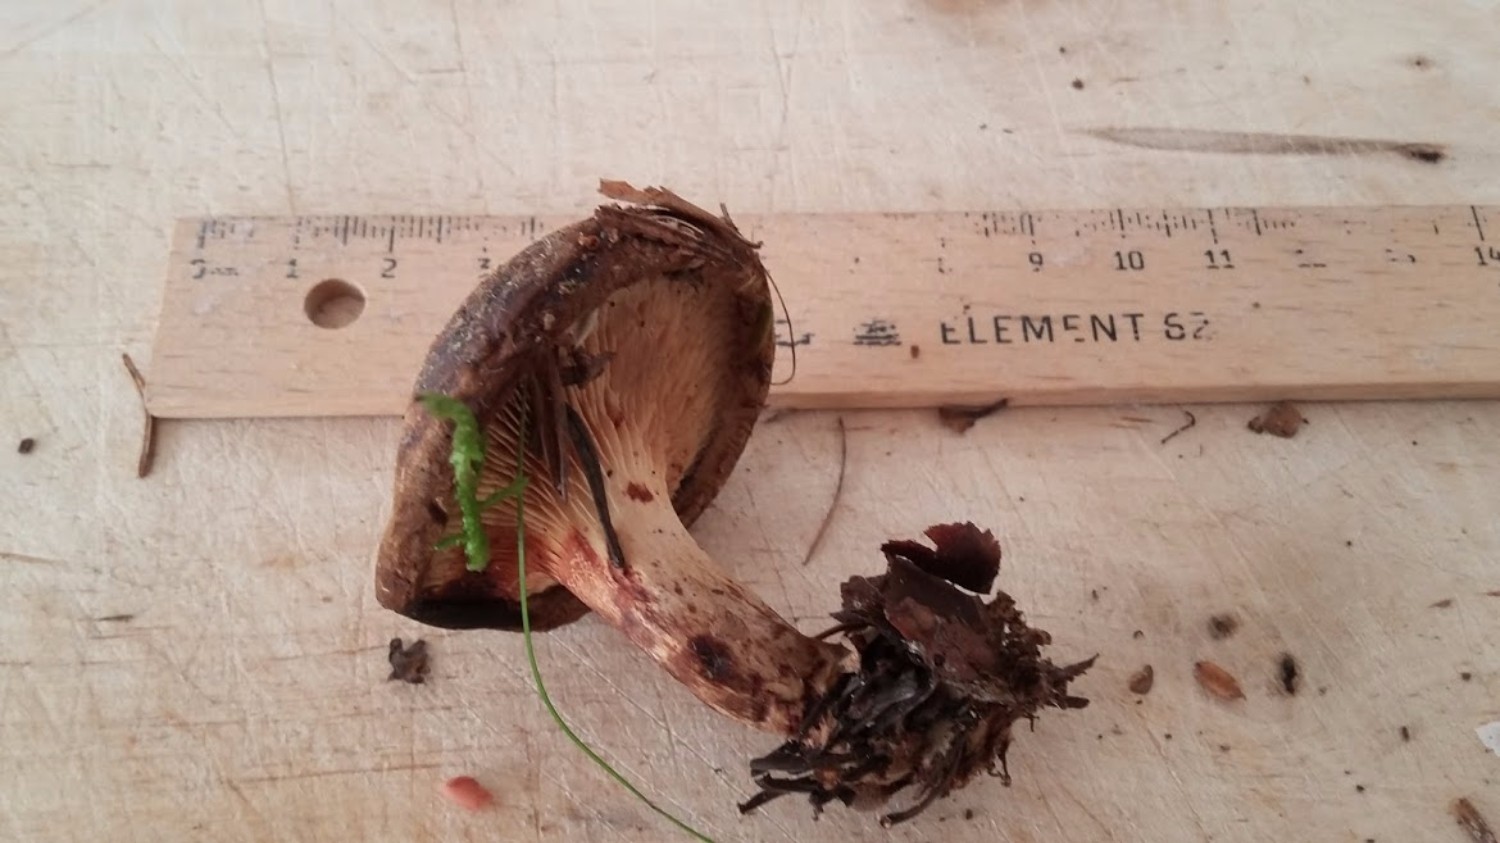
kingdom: Fungi
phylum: Basidiomycota
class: Agaricomycetes
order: Boletales
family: Paxillaceae
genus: Paxillus
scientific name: Paxillus involutus
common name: almindelig netbladhat
